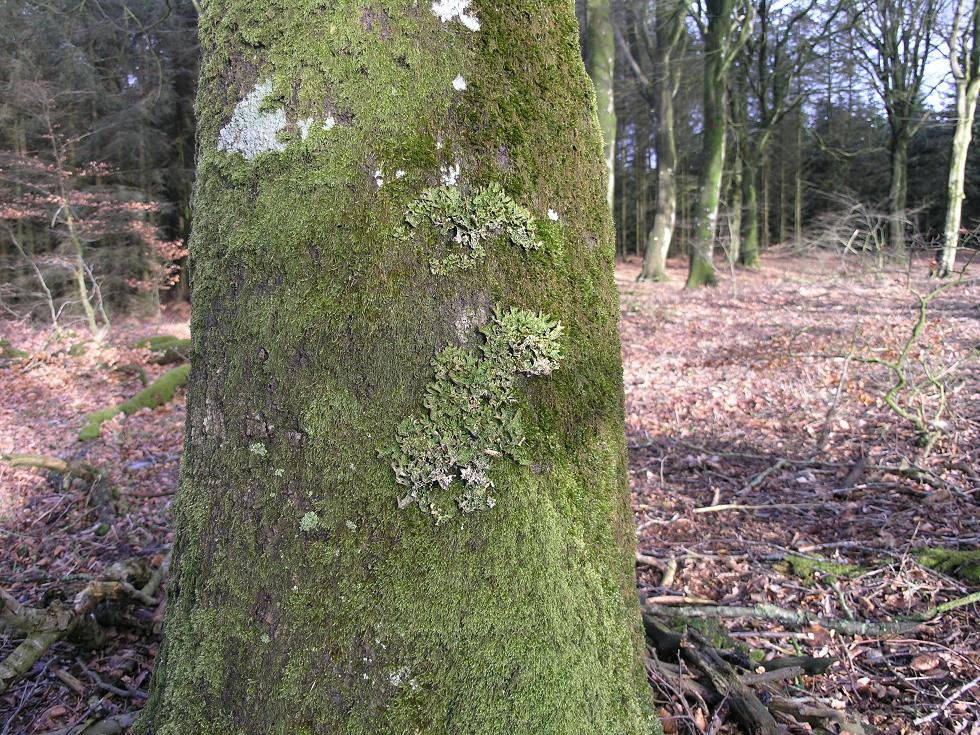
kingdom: Fungi
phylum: Ascomycota
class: Lecanoromycetes
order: Peltigerales
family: Lobariaceae
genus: Lobaria
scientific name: Lobaria pulmonaria
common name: almindelig lungelav
